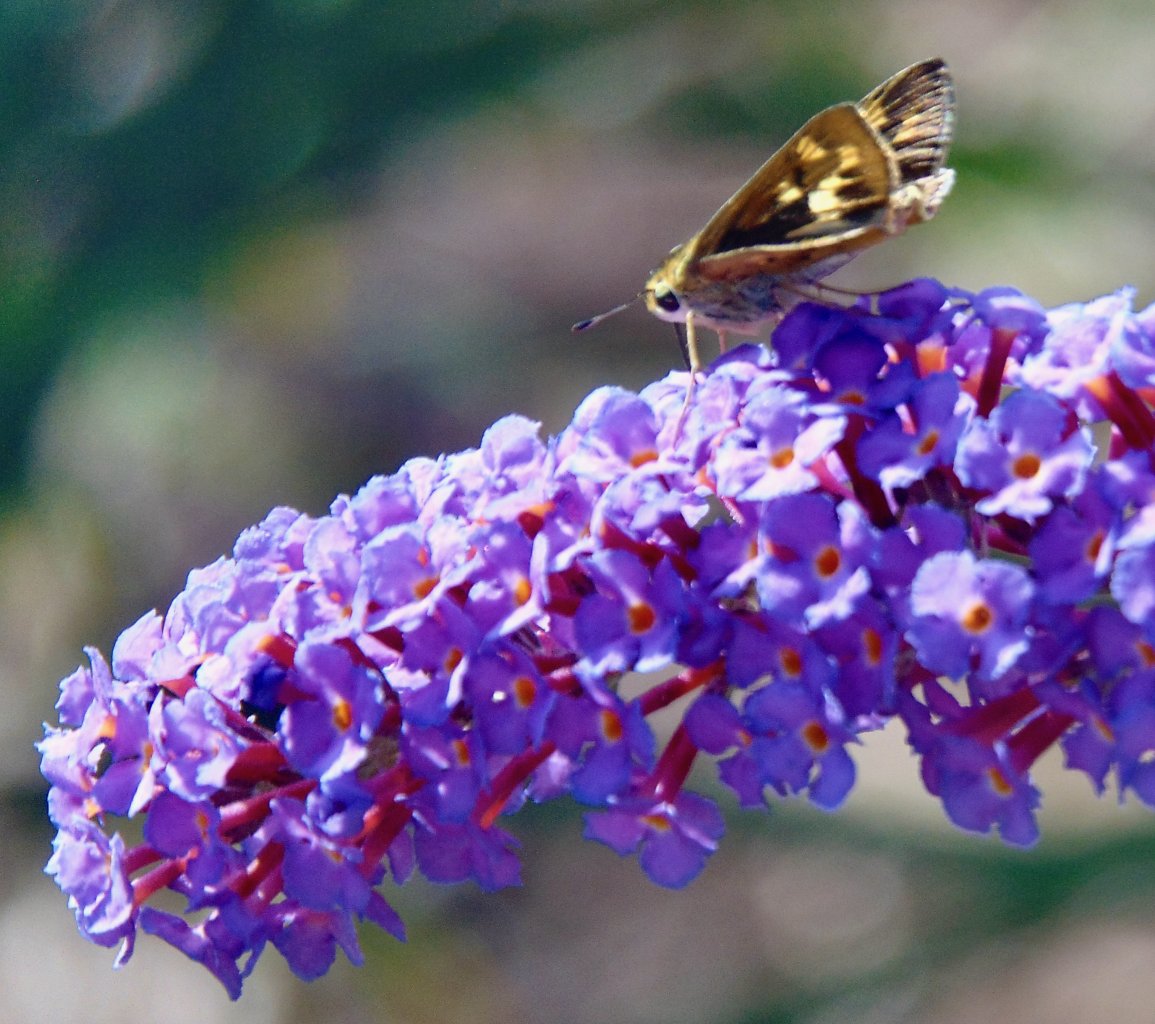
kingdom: Animalia
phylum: Arthropoda
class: Insecta
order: Lepidoptera
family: Hesperiidae
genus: Hylephila
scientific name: Hylephila phyleus
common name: Fiery Skipper
